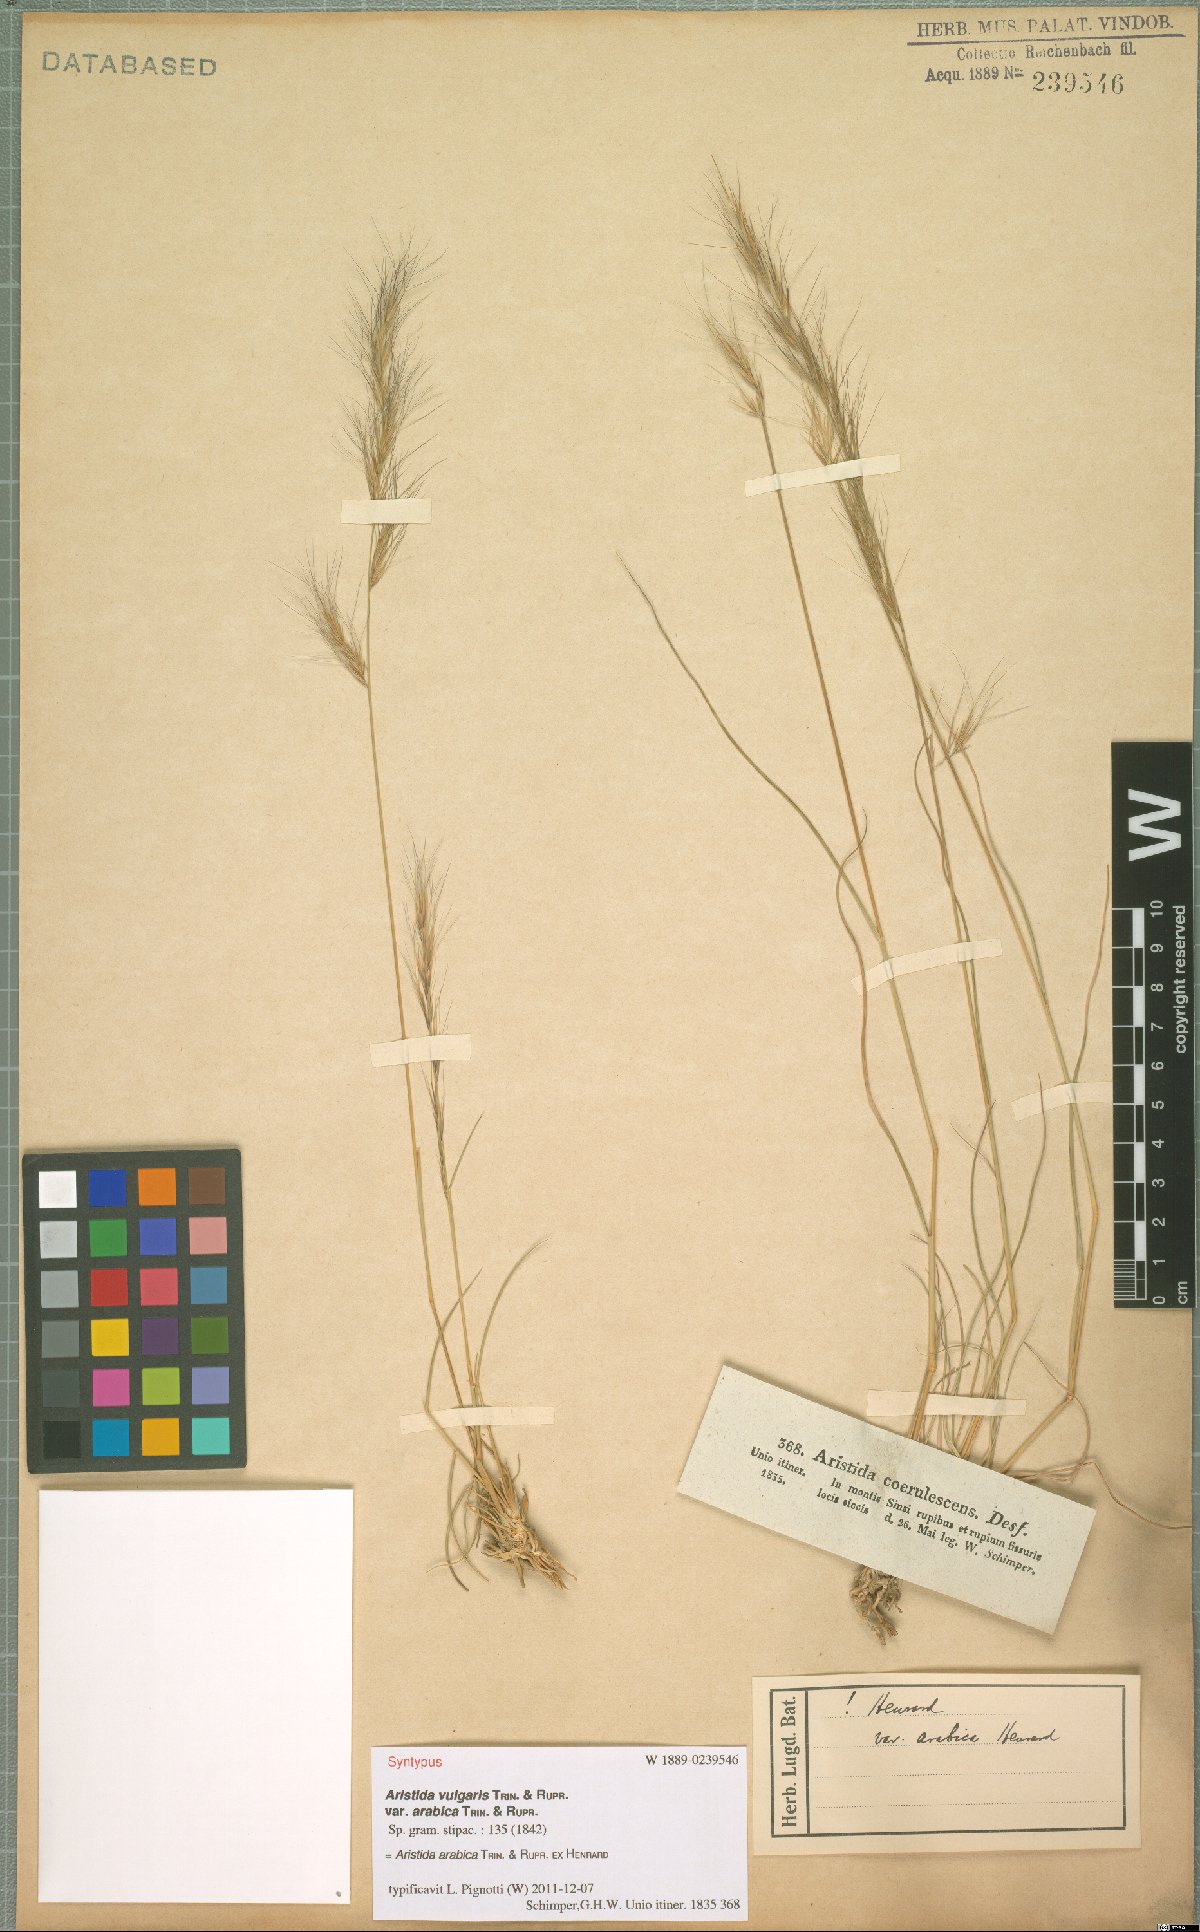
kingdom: Plantae
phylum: Tracheophyta
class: Liliopsida
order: Poales
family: Poaceae
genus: Aristida
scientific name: Aristida arabica
